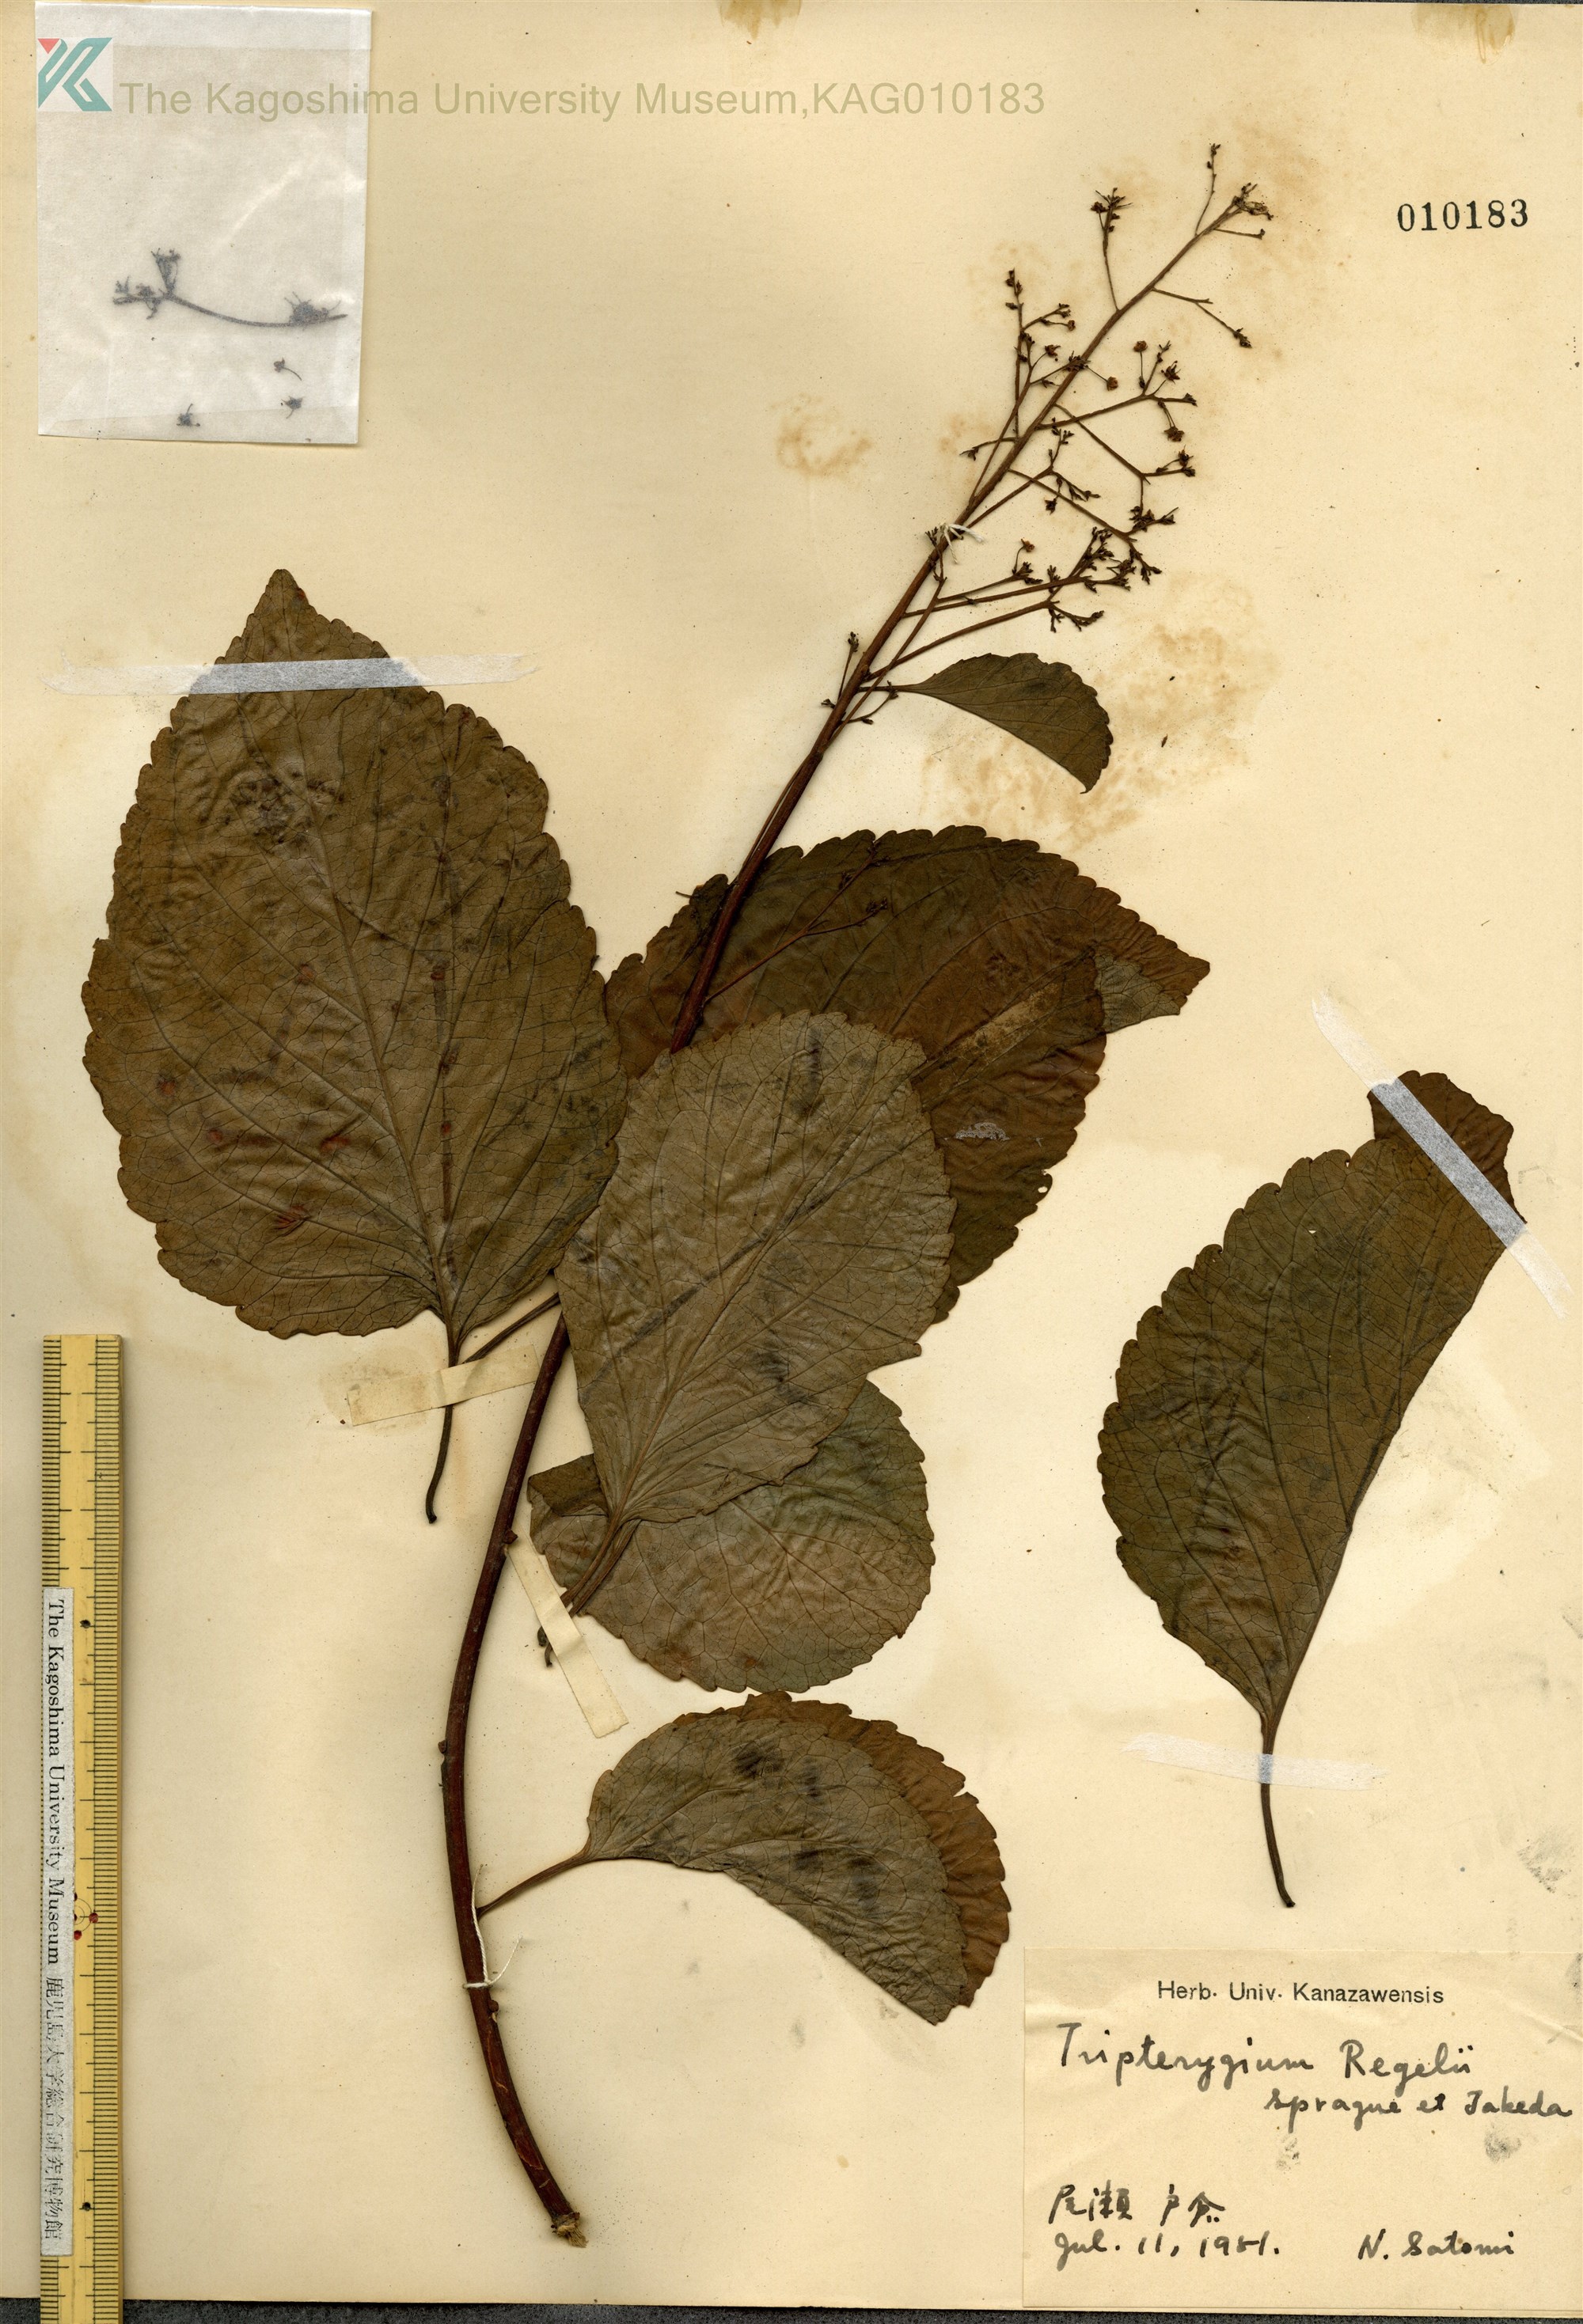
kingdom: Plantae
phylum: Tracheophyta
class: Magnoliopsida
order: Celastrales
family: Celastraceae
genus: Tripterygium
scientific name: Tripterygium wilfordii
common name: クロヅル
